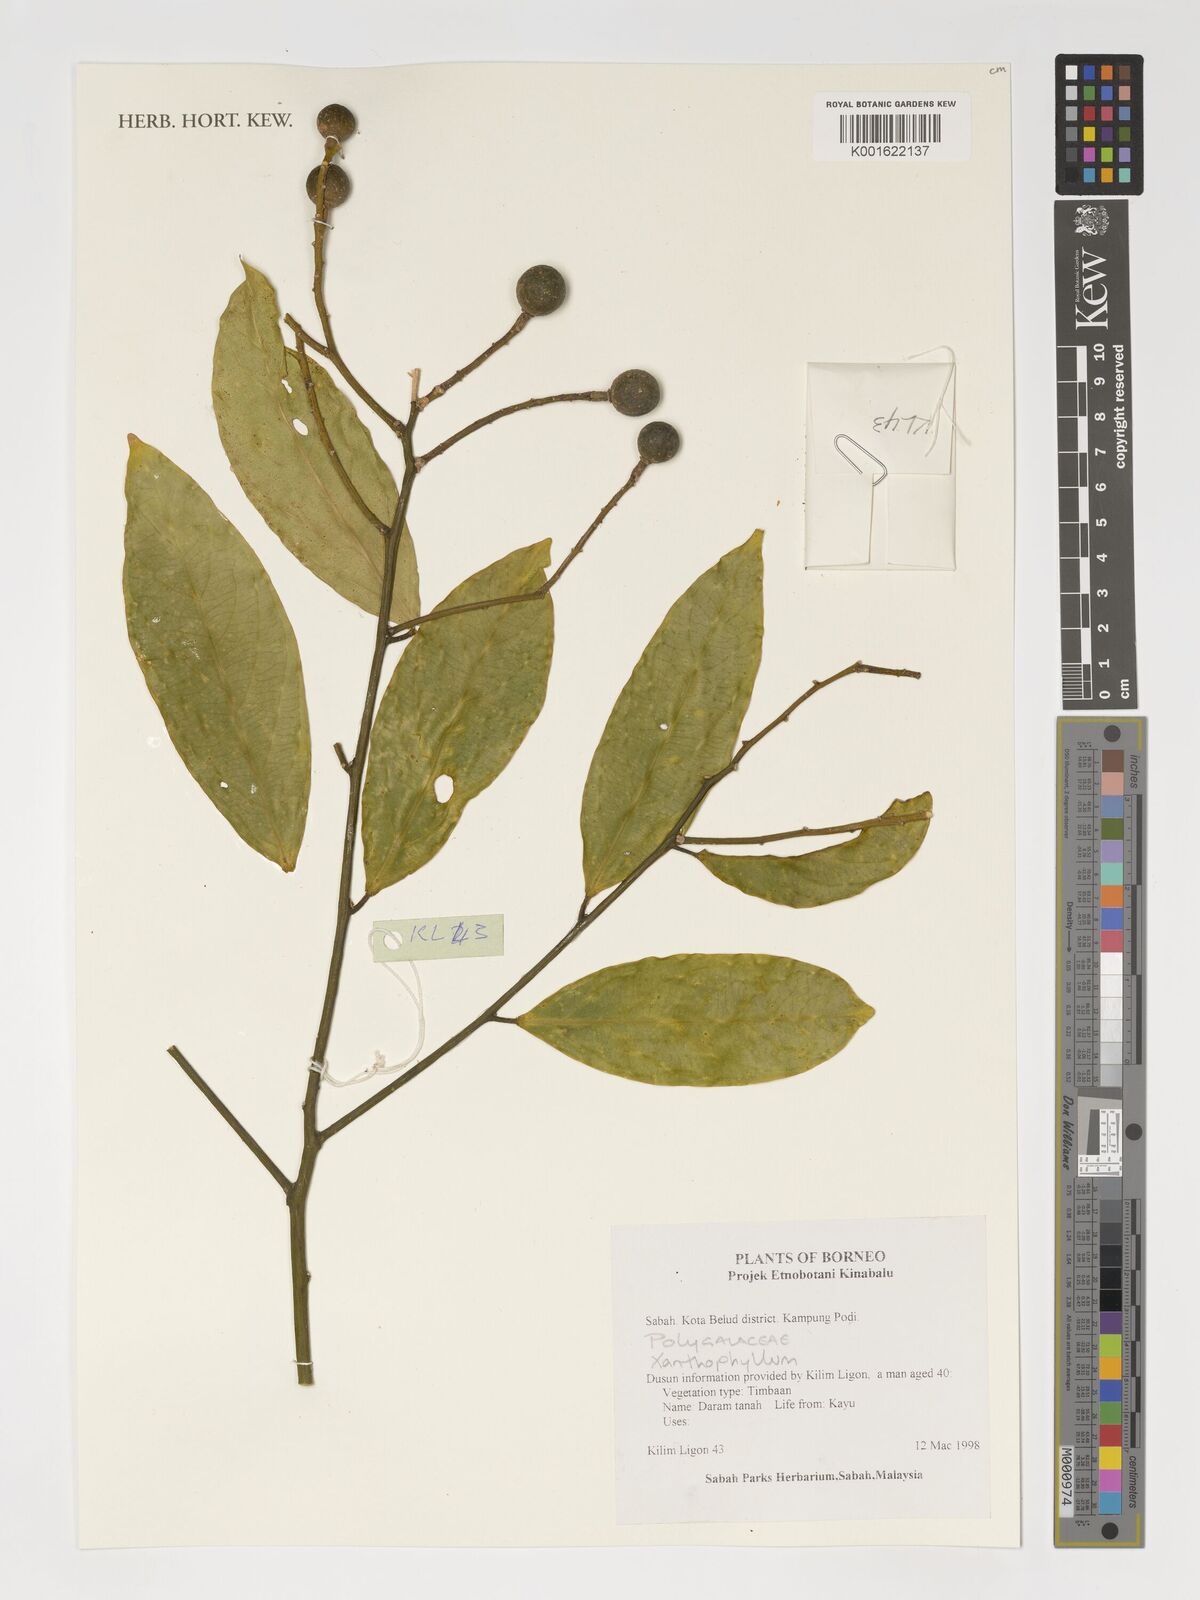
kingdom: Plantae
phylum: Tracheophyta
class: Magnoliopsida
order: Fabales
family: Polygalaceae
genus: Polygala
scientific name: Polygala xanthina
